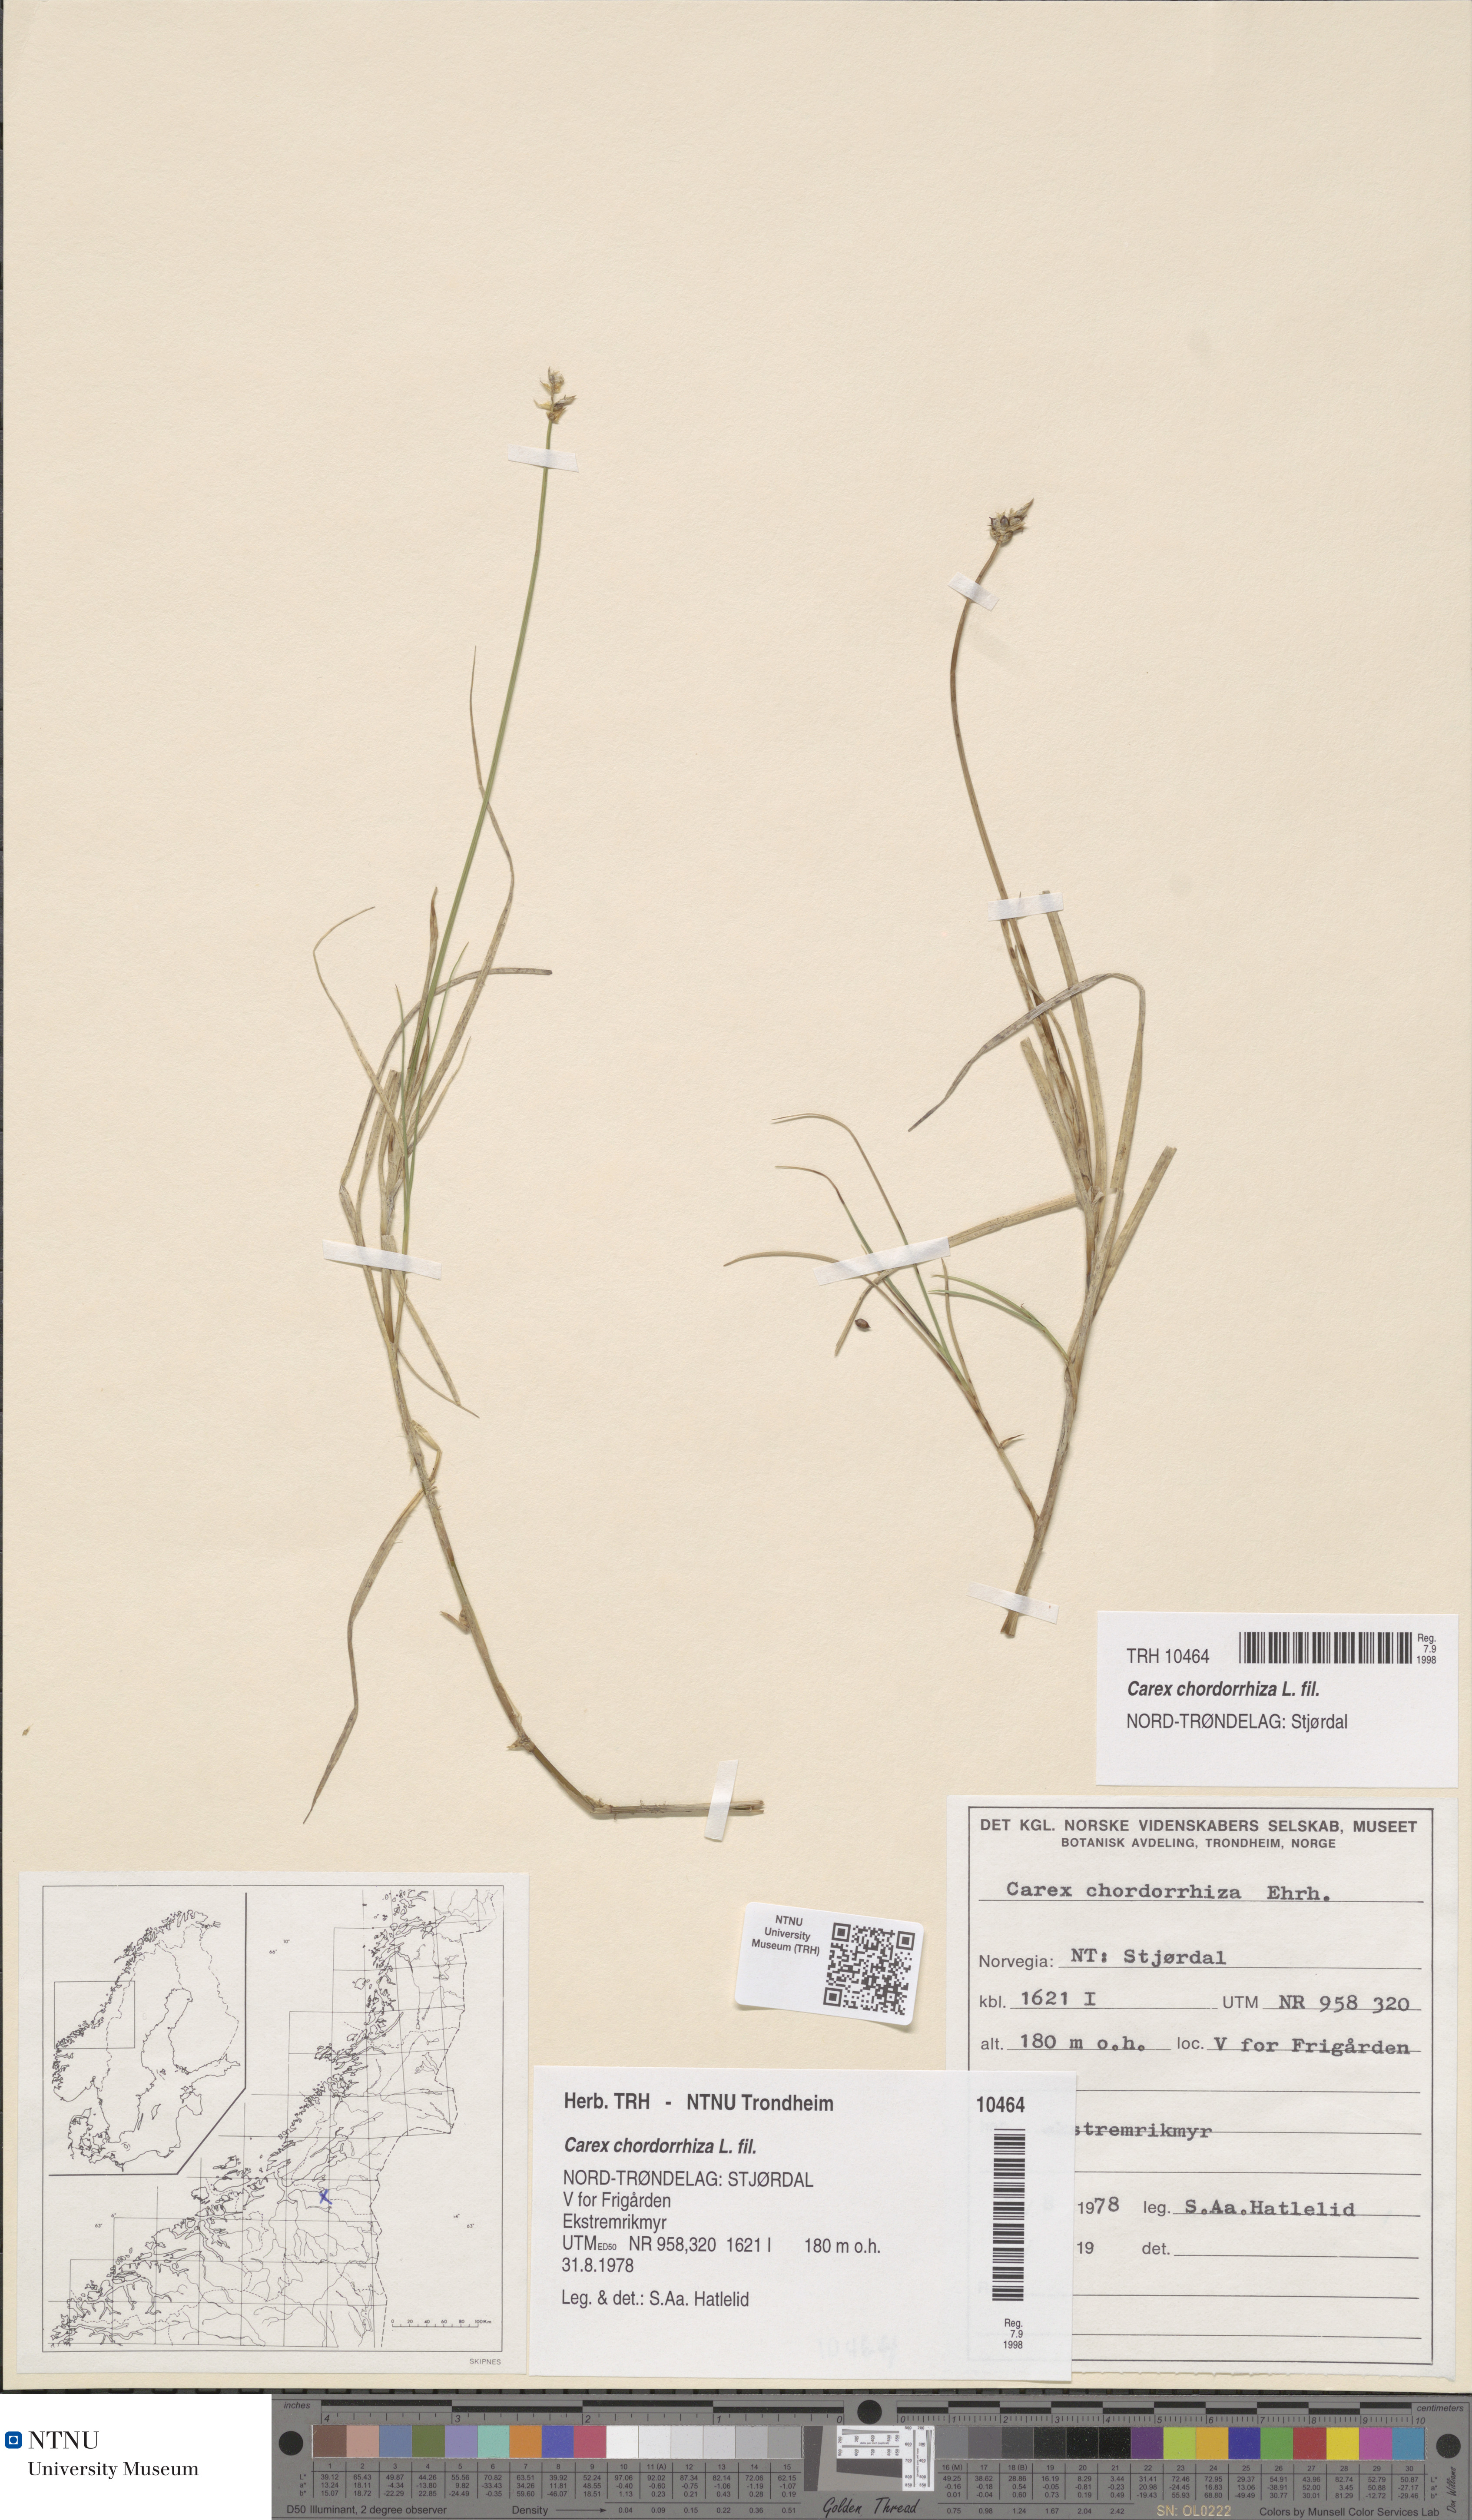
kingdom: Plantae
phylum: Tracheophyta
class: Liliopsida
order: Poales
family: Cyperaceae
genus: Carex
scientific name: Carex chordorrhiza
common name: String sedge
